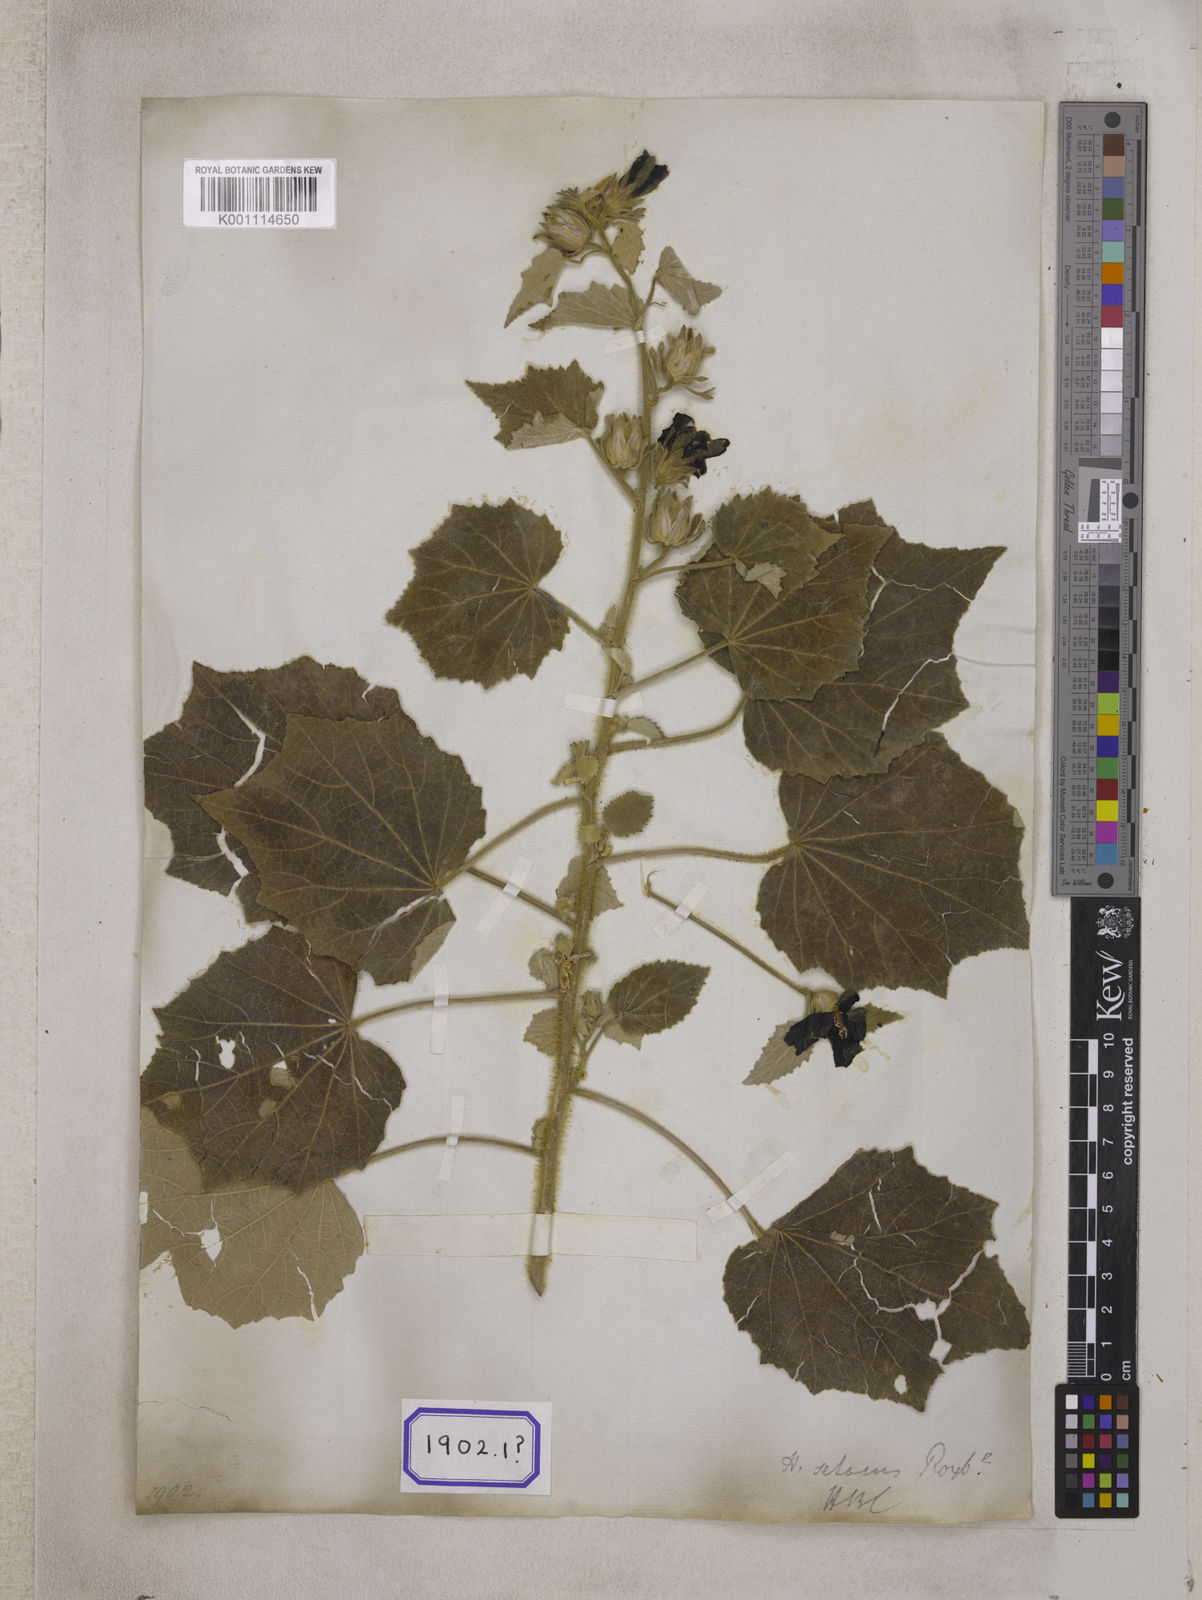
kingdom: Plantae
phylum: Tracheophyta
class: Magnoliopsida
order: Malvales
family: Malvaceae
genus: Talipariti
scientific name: Talipariti macrophyllum
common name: Largeleaf rosemallow
